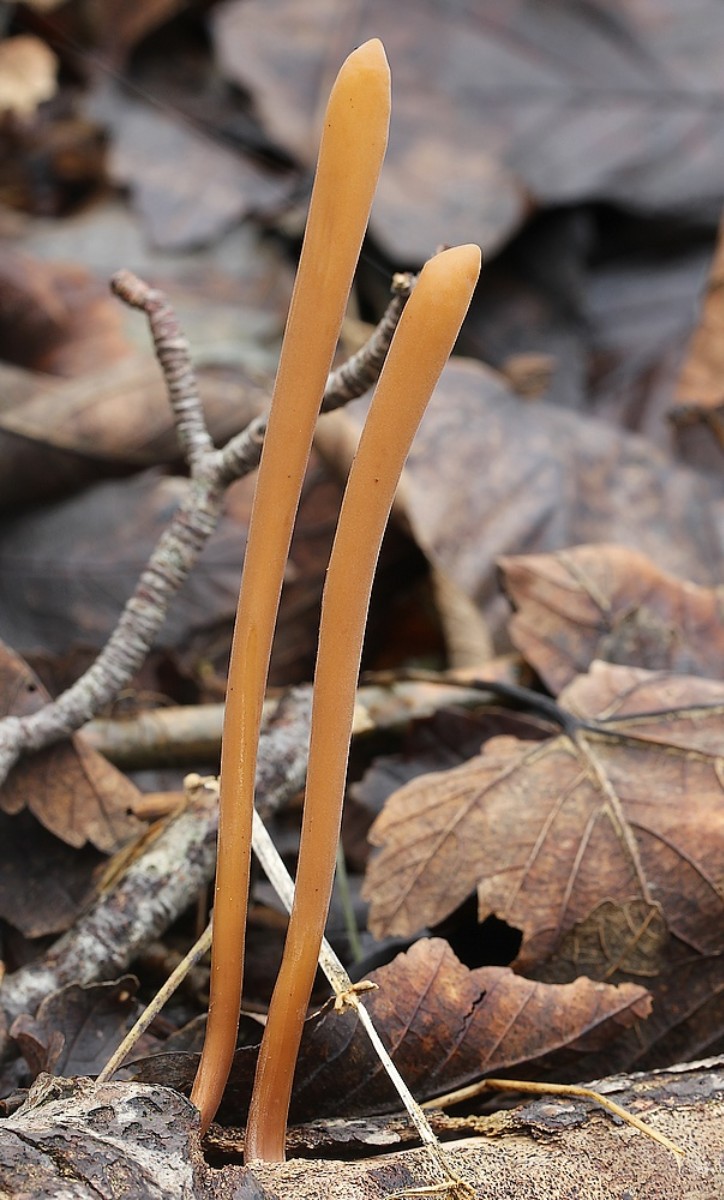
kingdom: Fungi
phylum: Basidiomycota
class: Agaricomycetes
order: Agaricales
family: Typhulaceae
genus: Typhula
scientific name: Typhula fistulosa
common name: pibet rørkølle
